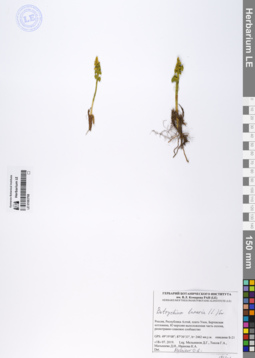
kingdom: Plantae
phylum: Tracheophyta
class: Polypodiopsida
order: Ophioglossales
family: Ophioglossaceae
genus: Botrychium
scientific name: Botrychium lunaria
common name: Moonwort
